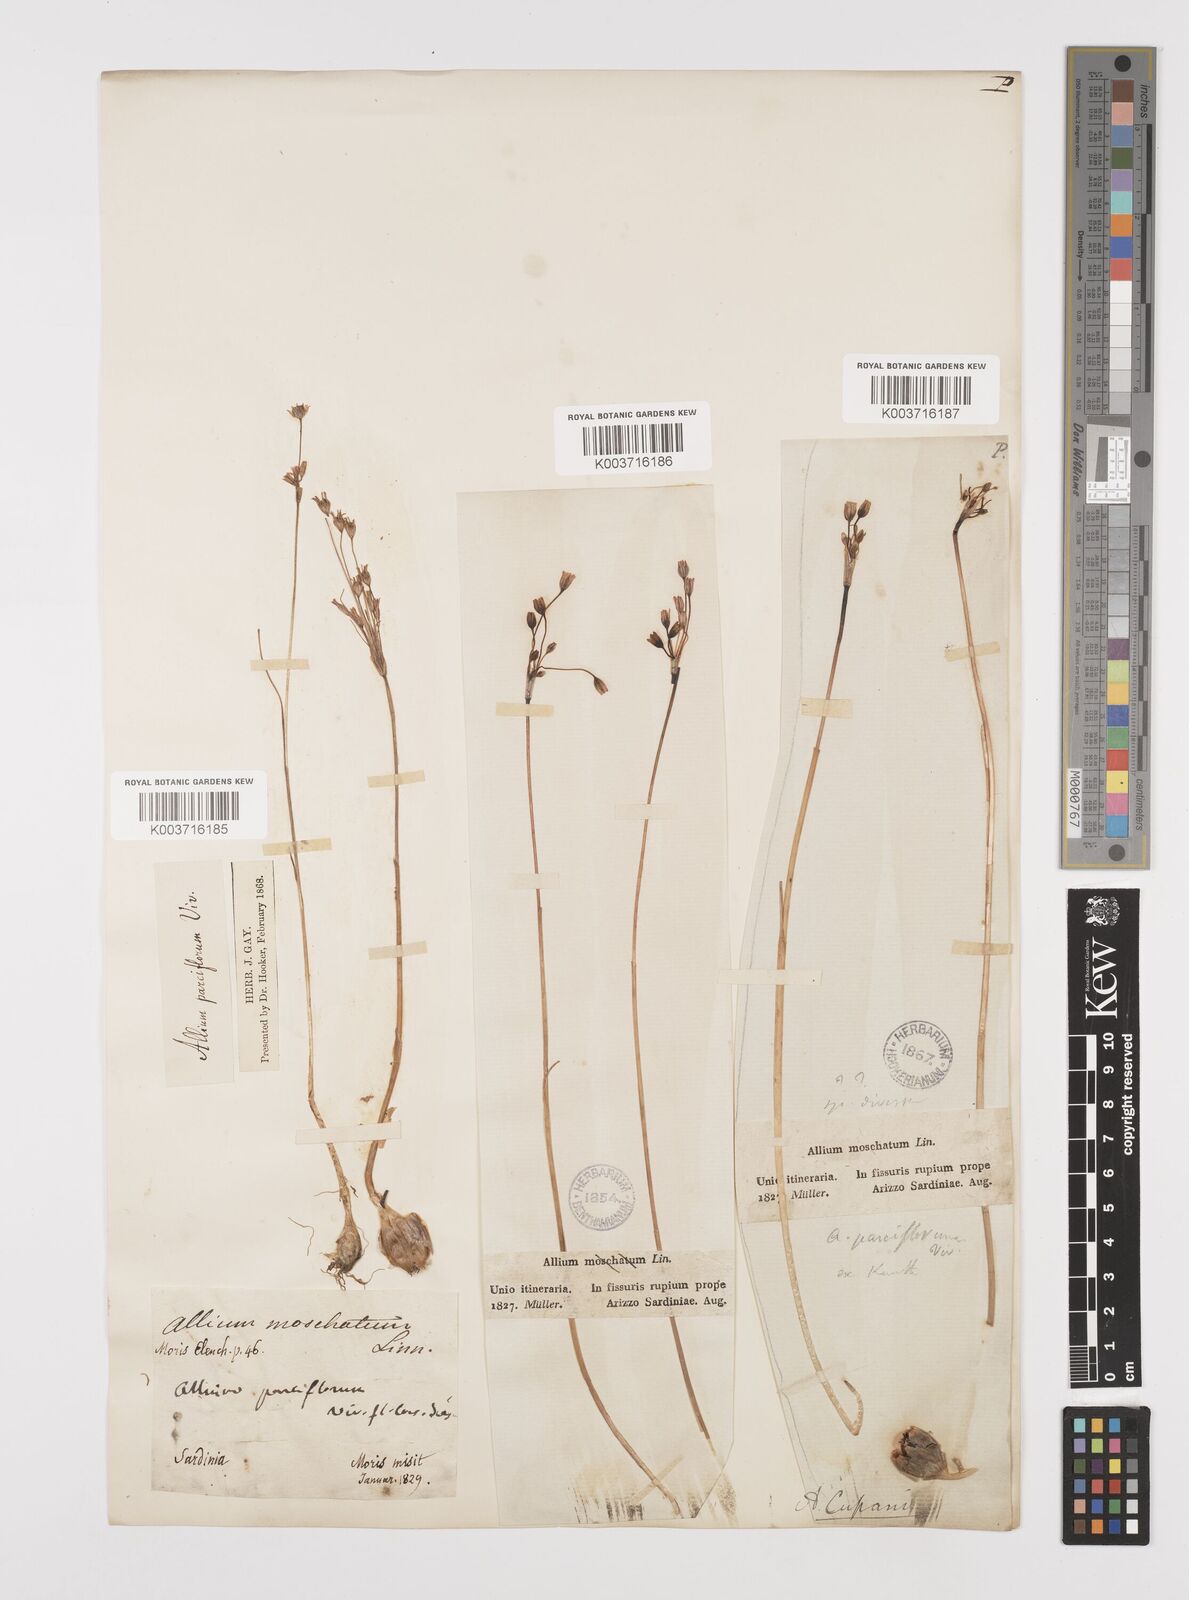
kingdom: Plantae
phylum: Tracheophyta
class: Liliopsida
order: Asparagales
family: Amaryllidaceae
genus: Allium
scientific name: Allium parciflorum
